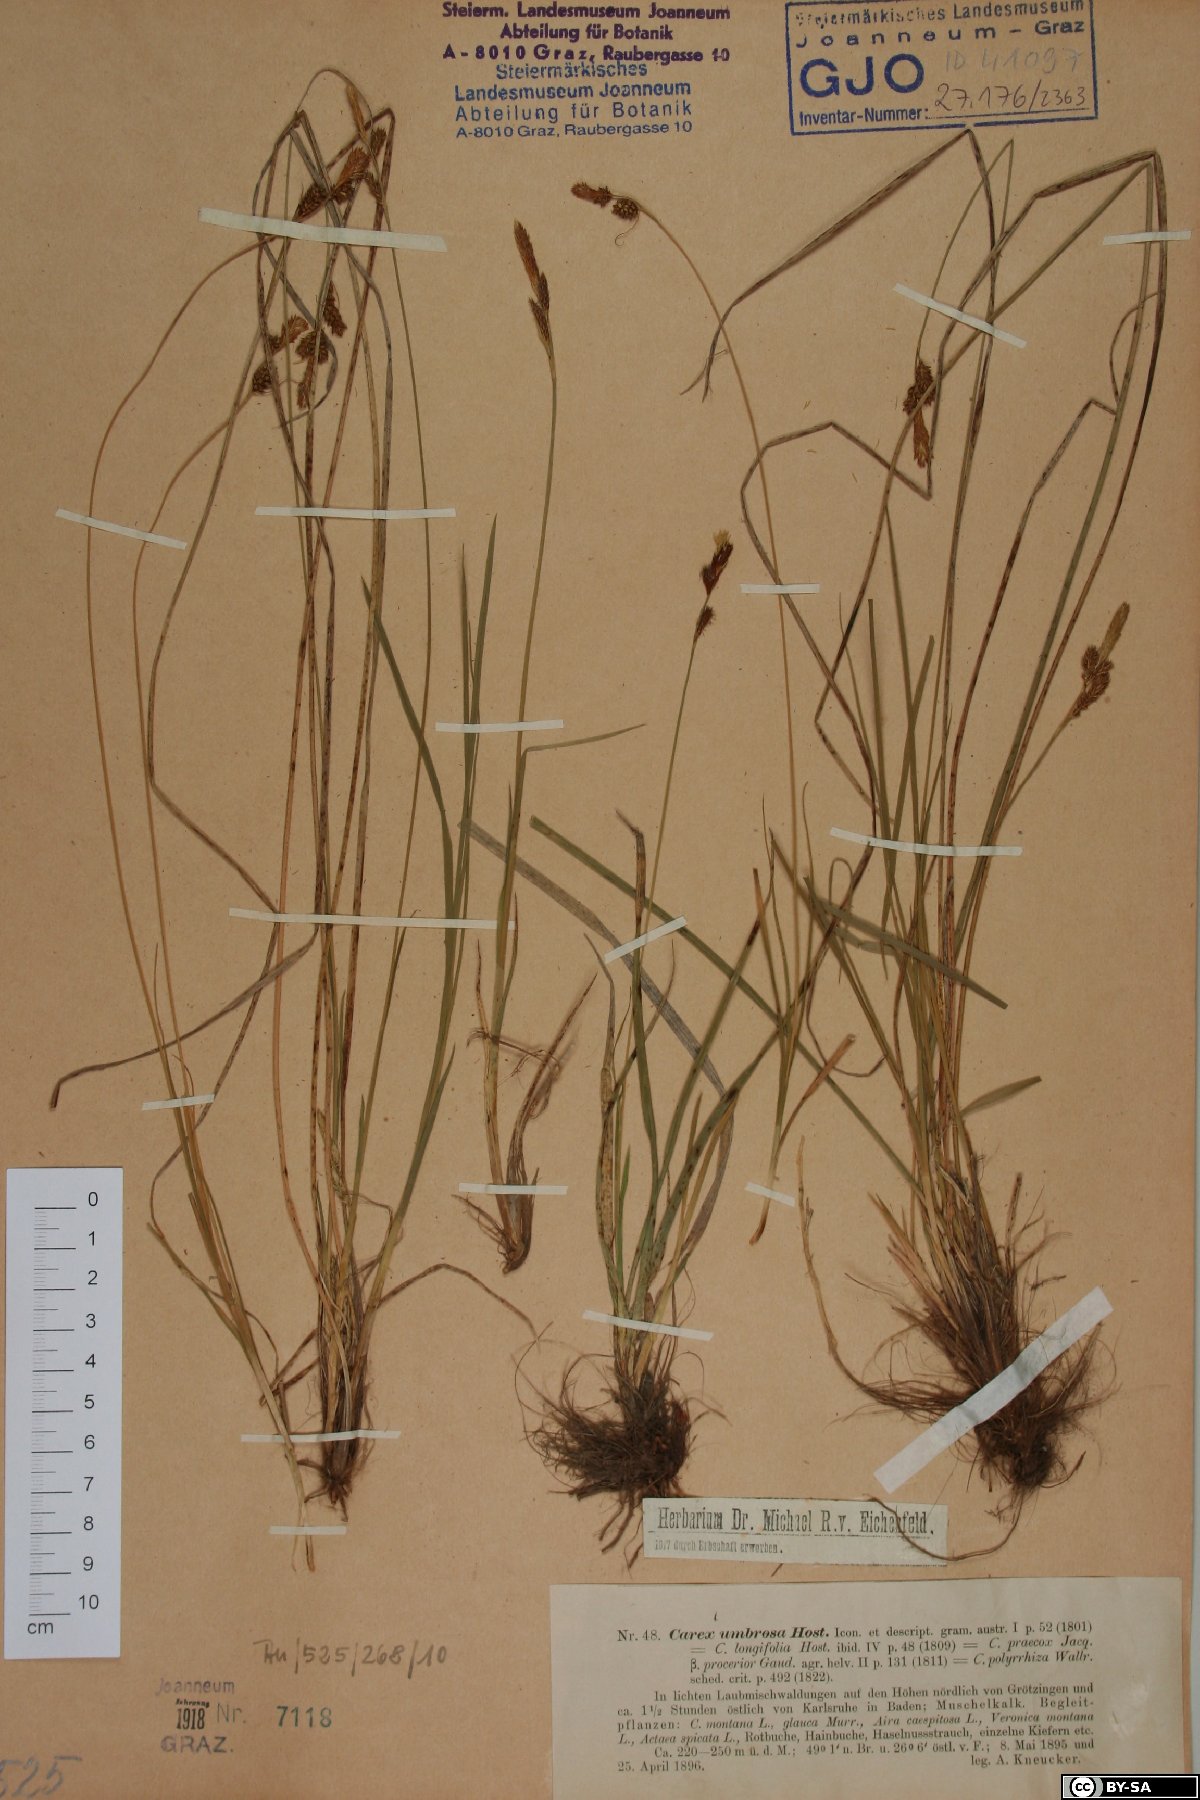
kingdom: Plantae
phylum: Tracheophyta
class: Liliopsida
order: Poales
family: Cyperaceae
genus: Carex
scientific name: Carex umbrosa
